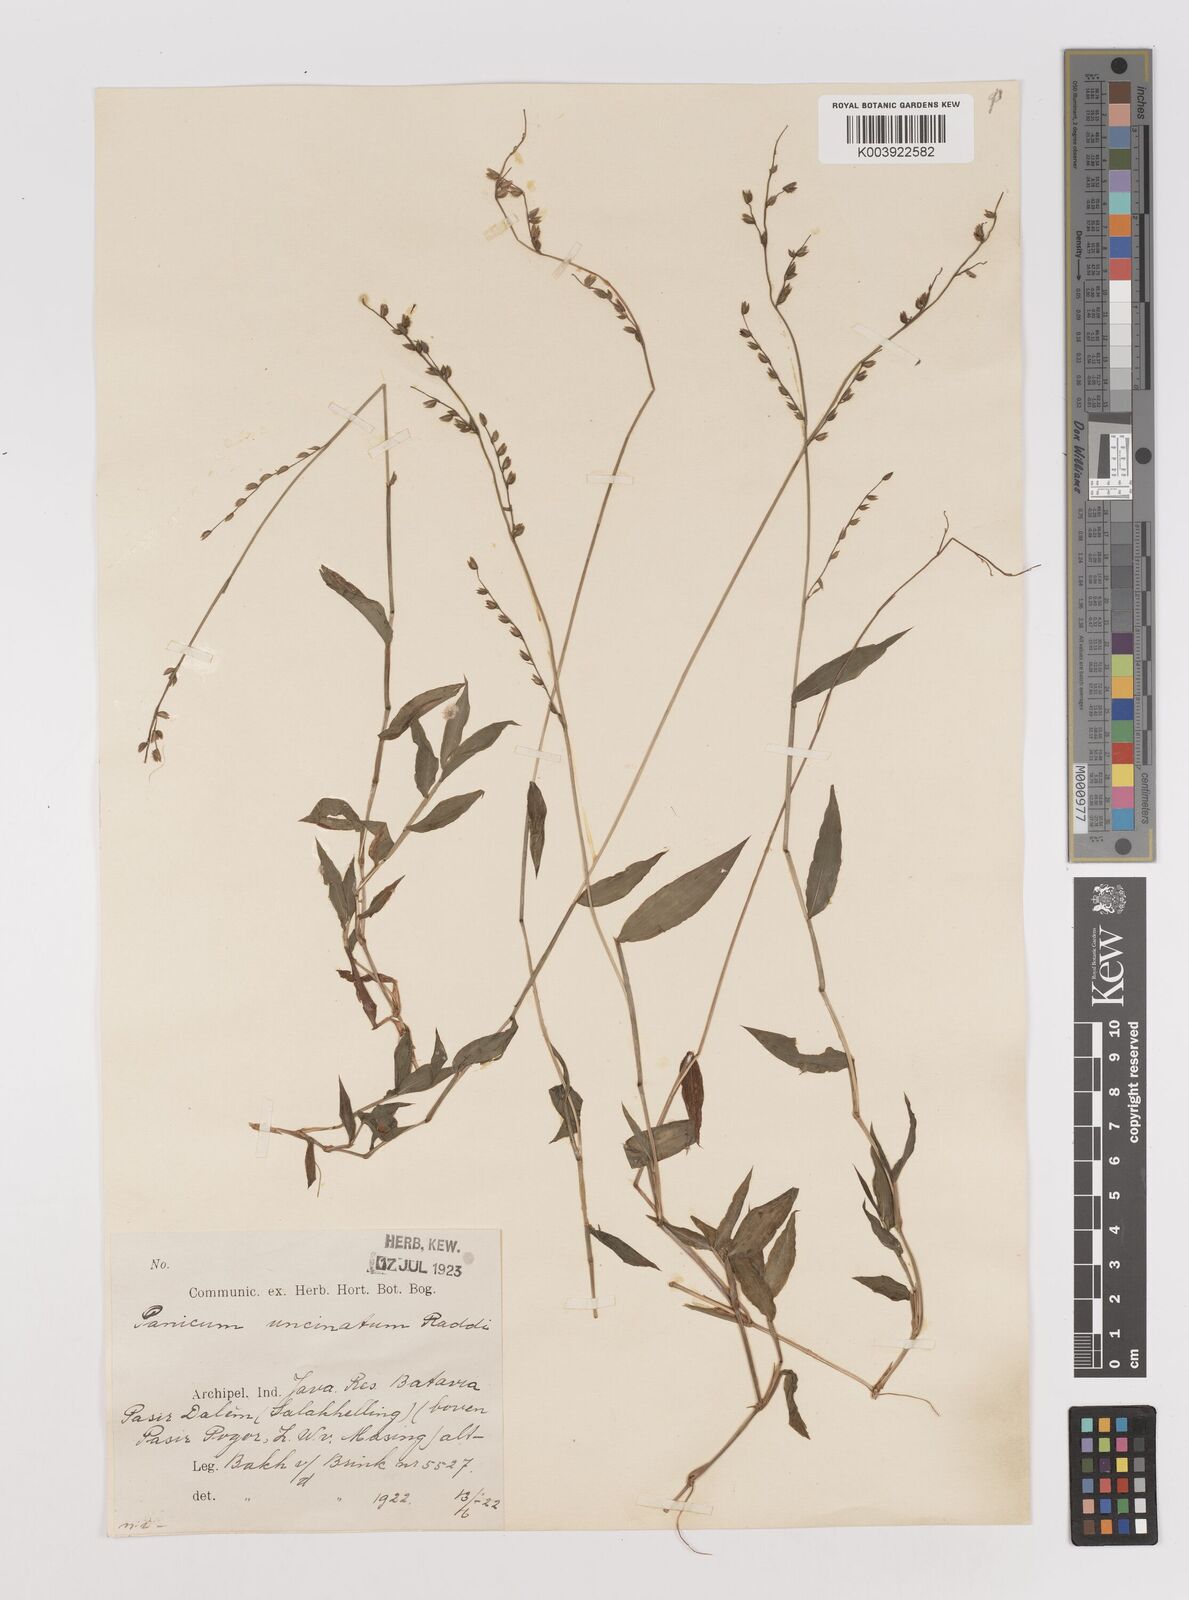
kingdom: Plantae
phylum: Tracheophyta
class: Liliopsida
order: Poales
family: Poaceae
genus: Pseudechinolaena
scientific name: Pseudechinolaena polystachya
